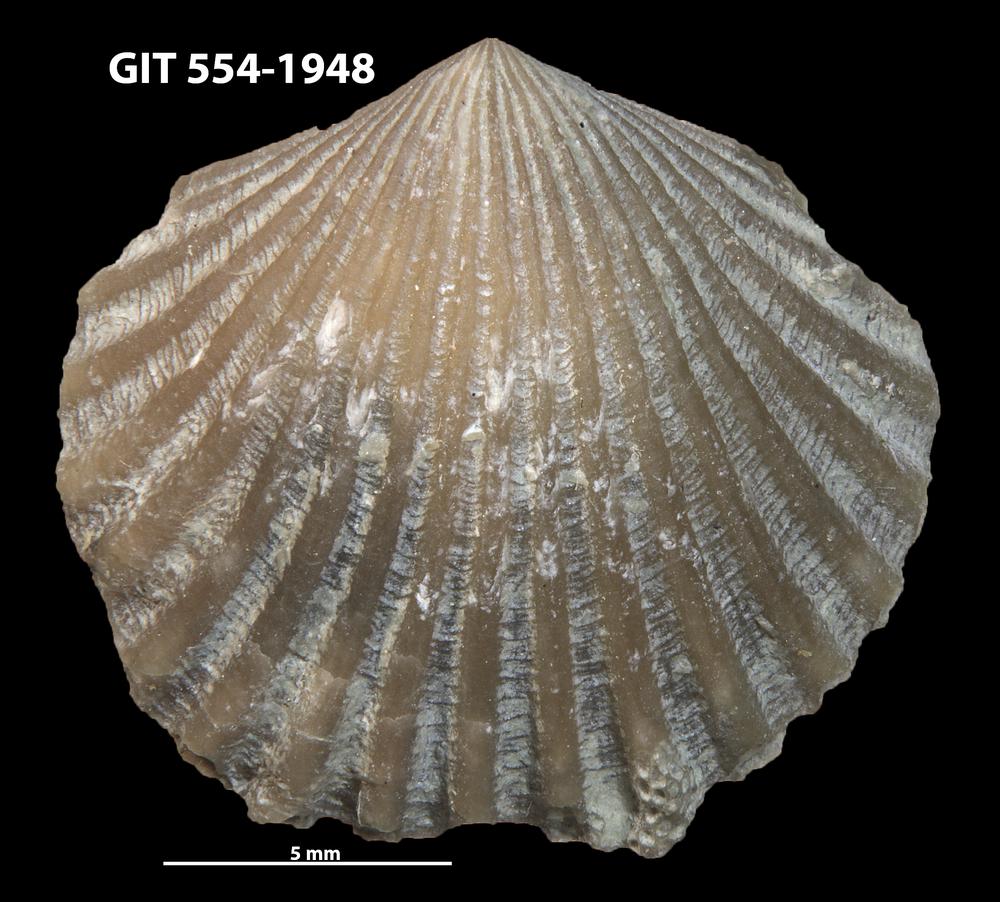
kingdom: Animalia
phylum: Brachiopoda
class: Rhynchonellata
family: Dolerorthidae
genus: Hesperorthis
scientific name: Hesperorthis hillistensis
